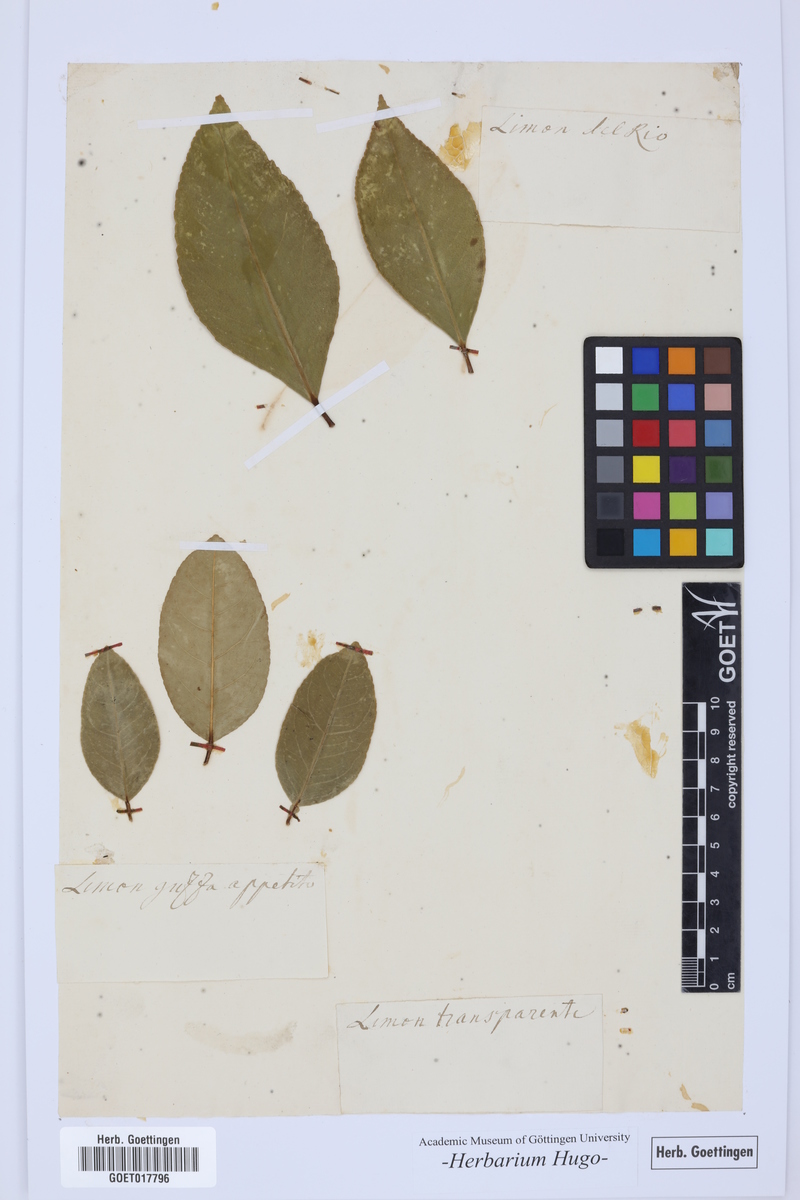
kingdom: Plantae
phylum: Tracheophyta
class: Magnoliopsida
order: Sapindales
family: Rutaceae
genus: Citrus
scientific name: Citrus
